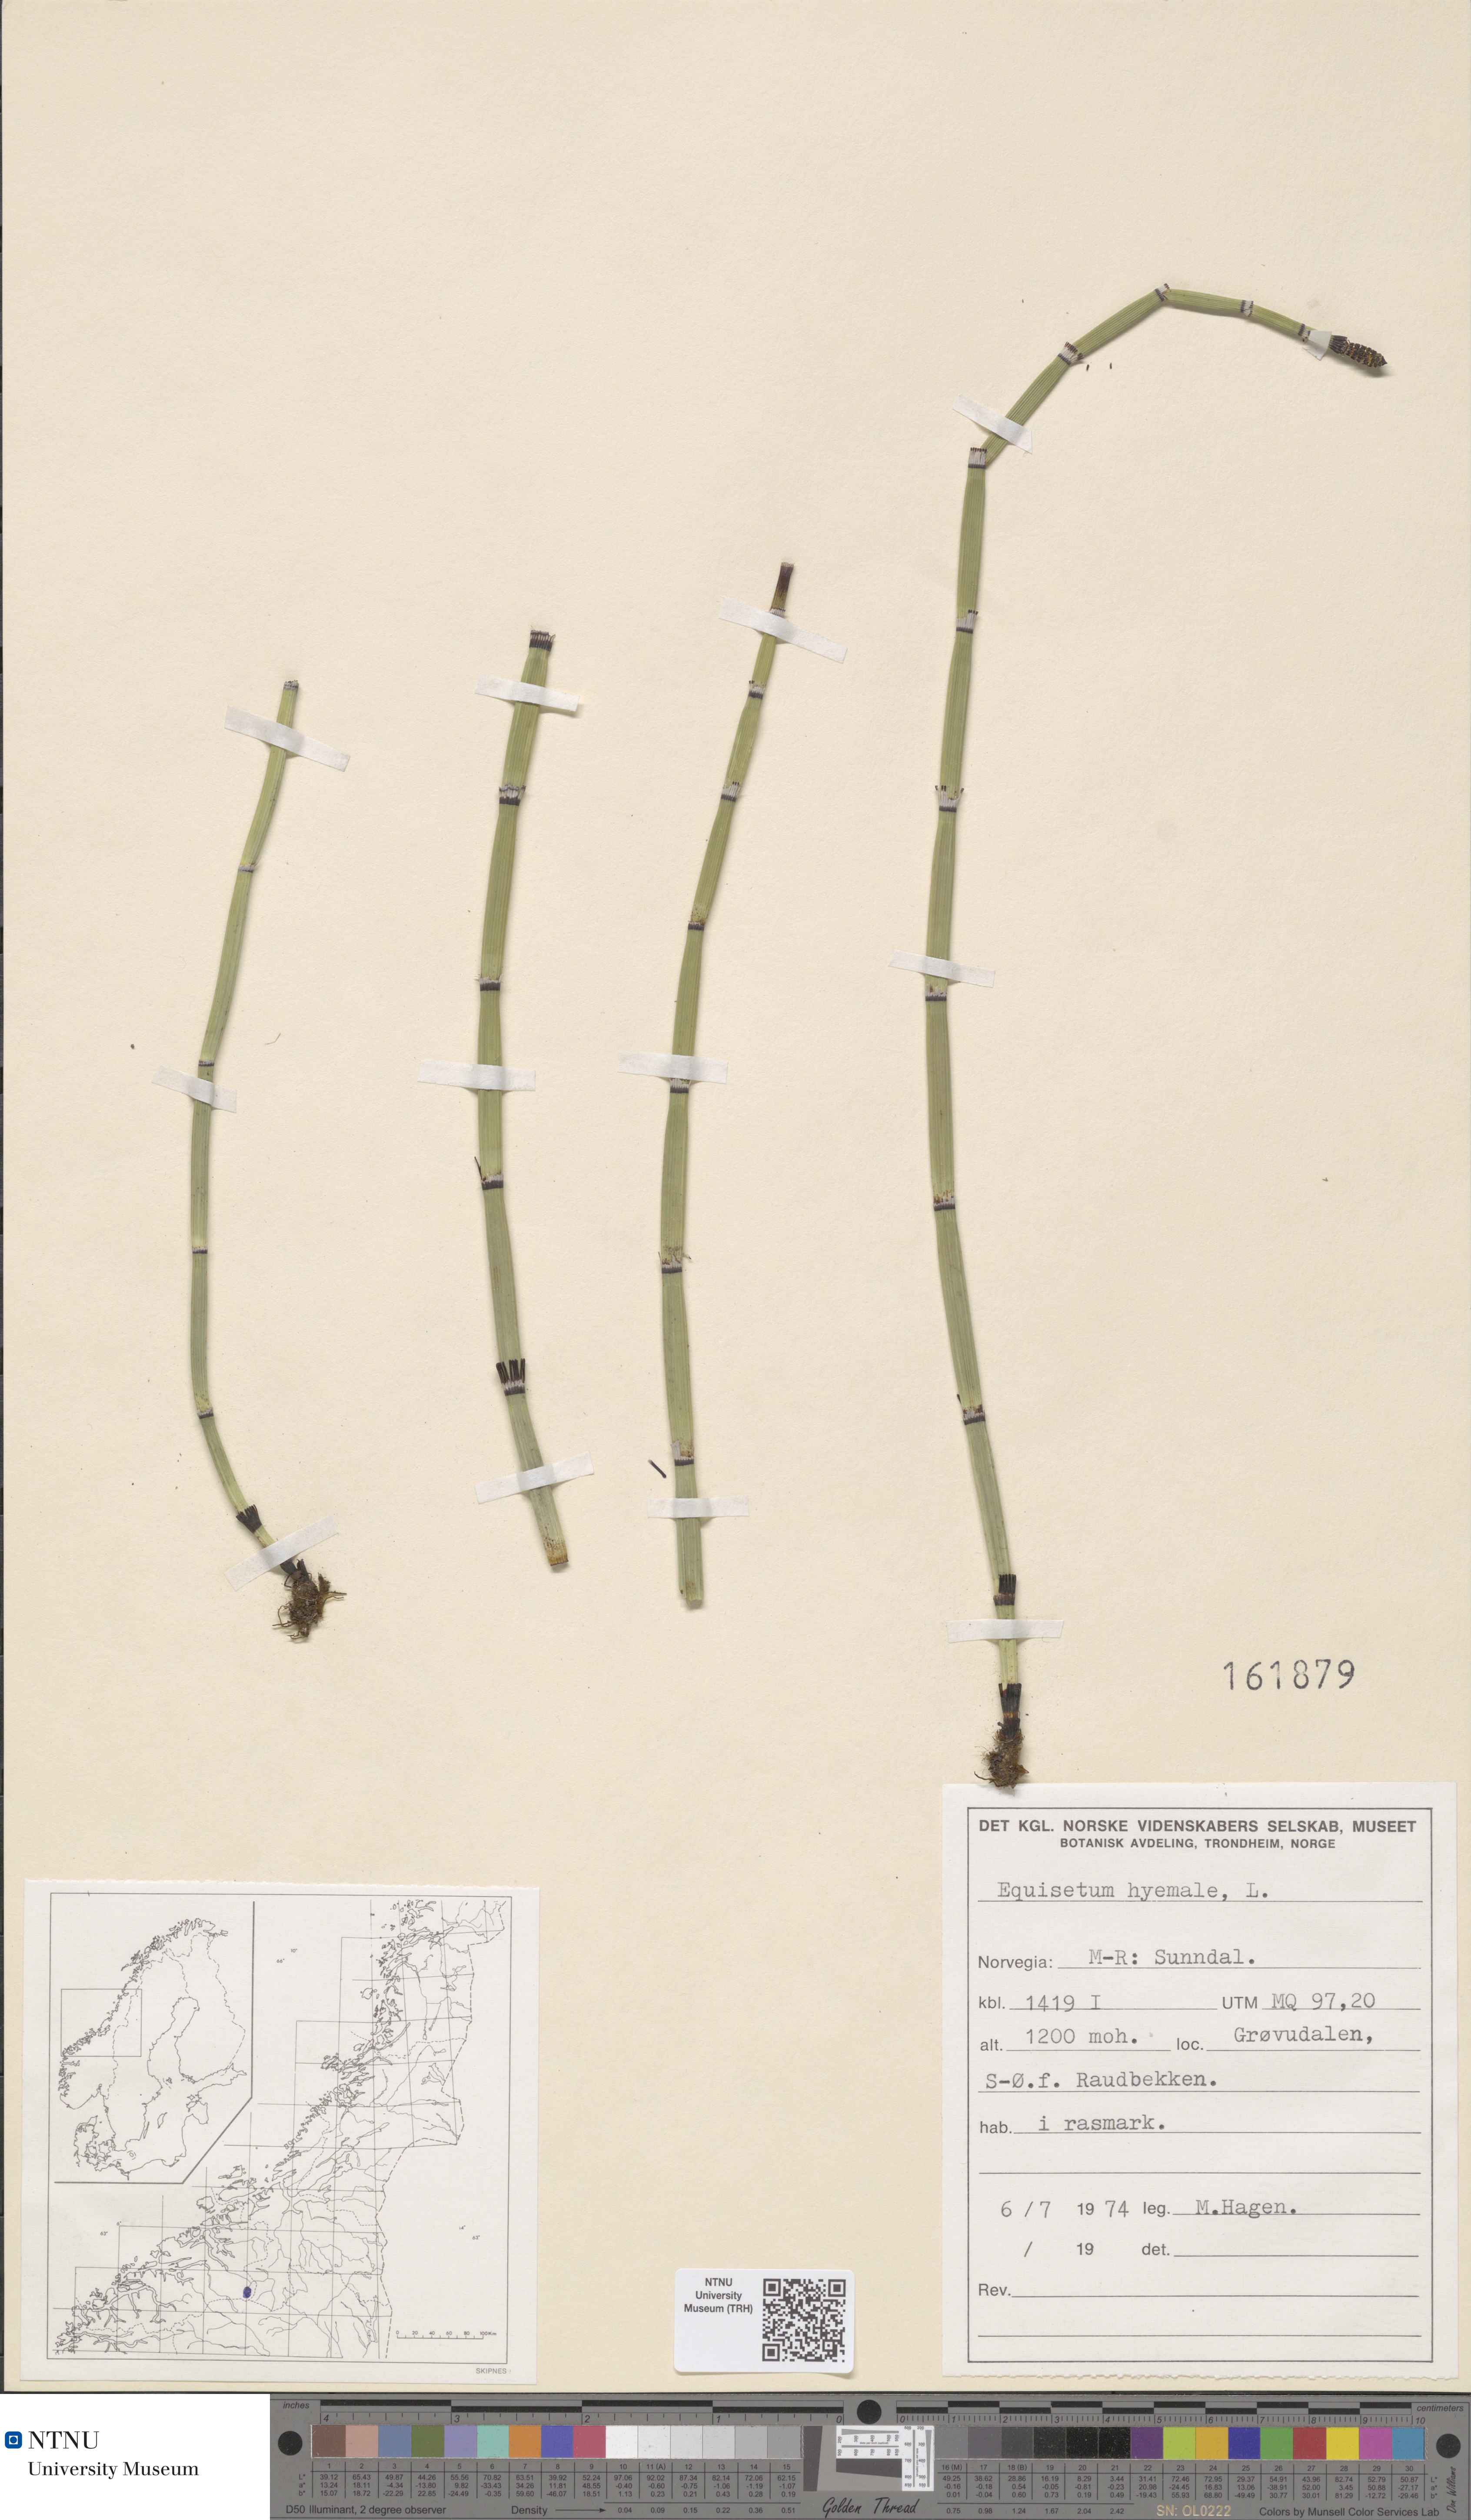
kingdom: Plantae
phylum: Tracheophyta
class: Polypodiopsida
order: Equisetales
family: Equisetaceae
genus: Equisetum
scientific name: Equisetum hyemale
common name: Rough horsetail
